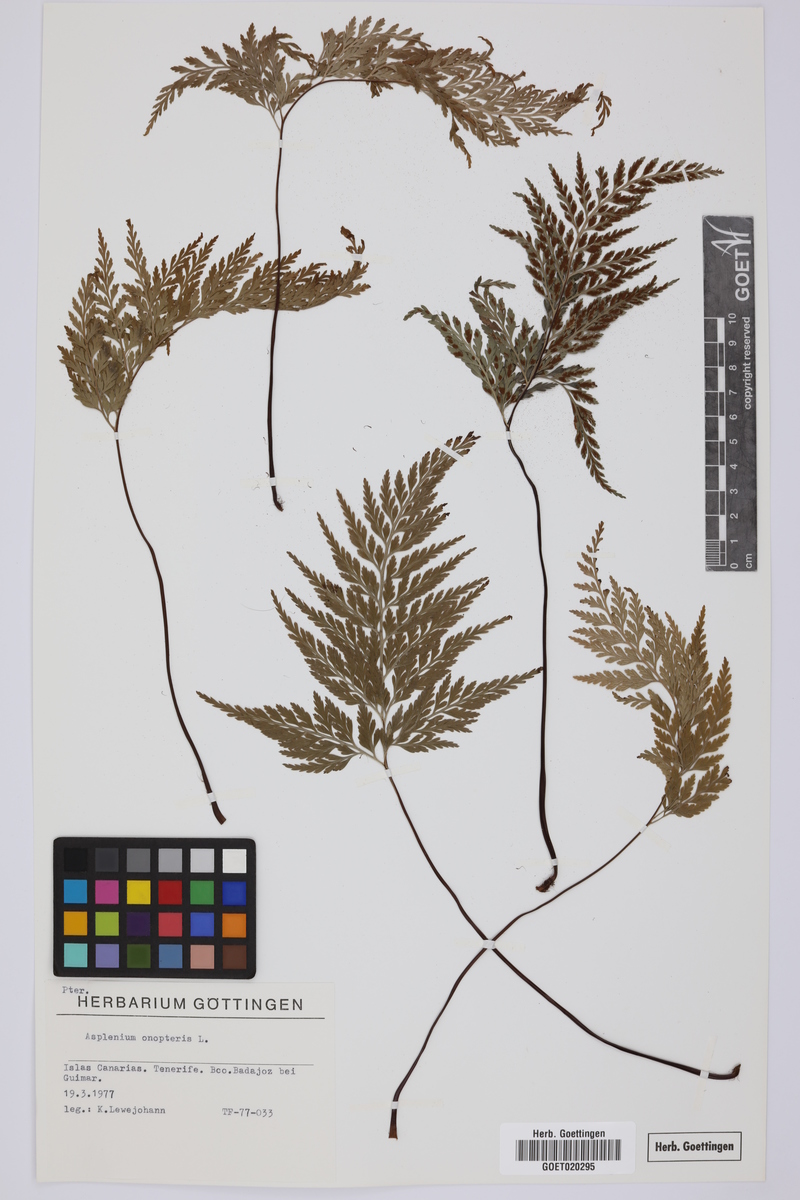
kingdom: Plantae
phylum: Tracheophyta
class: Polypodiopsida
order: Polypodiales
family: Aspleniaceae
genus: Asplenium
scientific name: Asplenium onopteris
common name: Irish spleenwort
